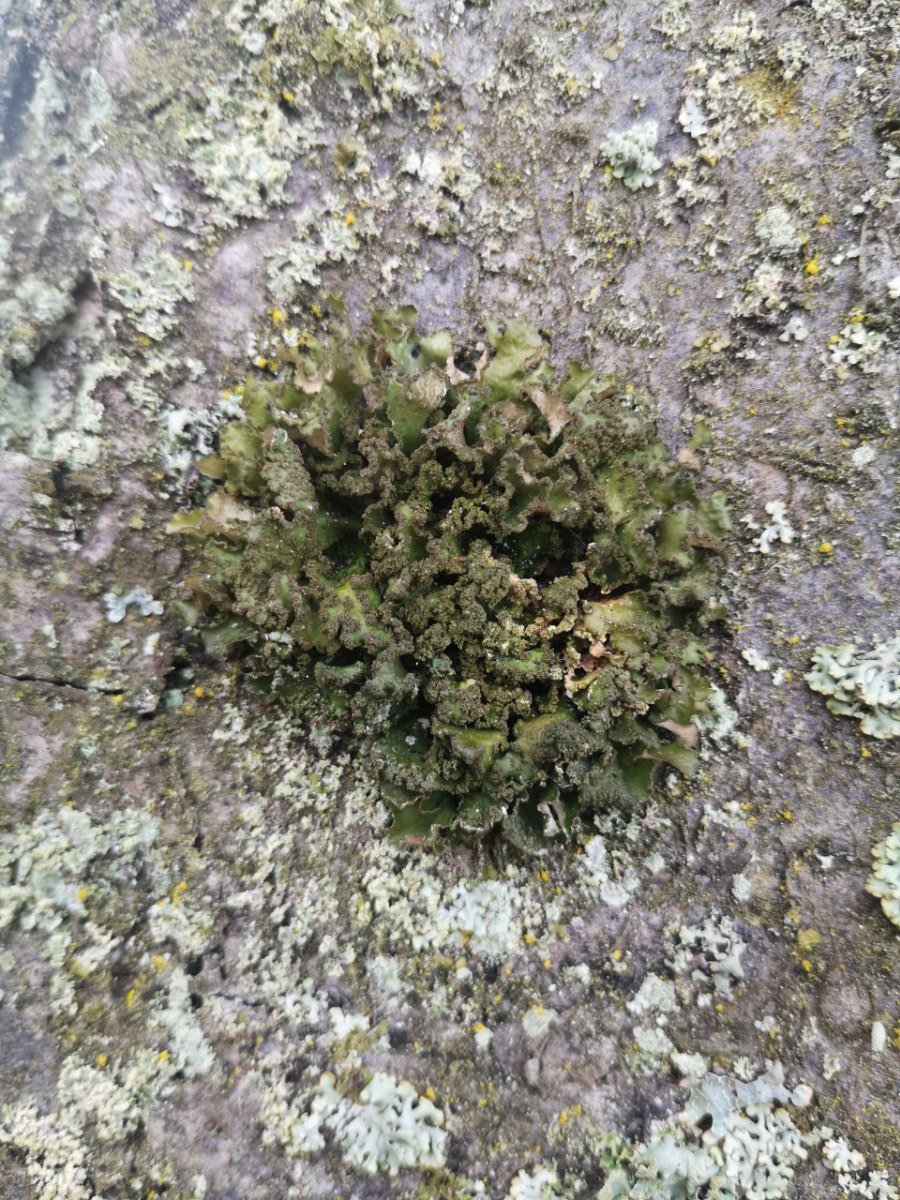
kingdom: Fungi
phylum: Ascomycota
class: Lecanoromycetes
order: Lecanorales
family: Parmeliaceae
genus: Nephromopsis
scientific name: Nephromopsis chlorophylla
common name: olivenbrun kruslav
